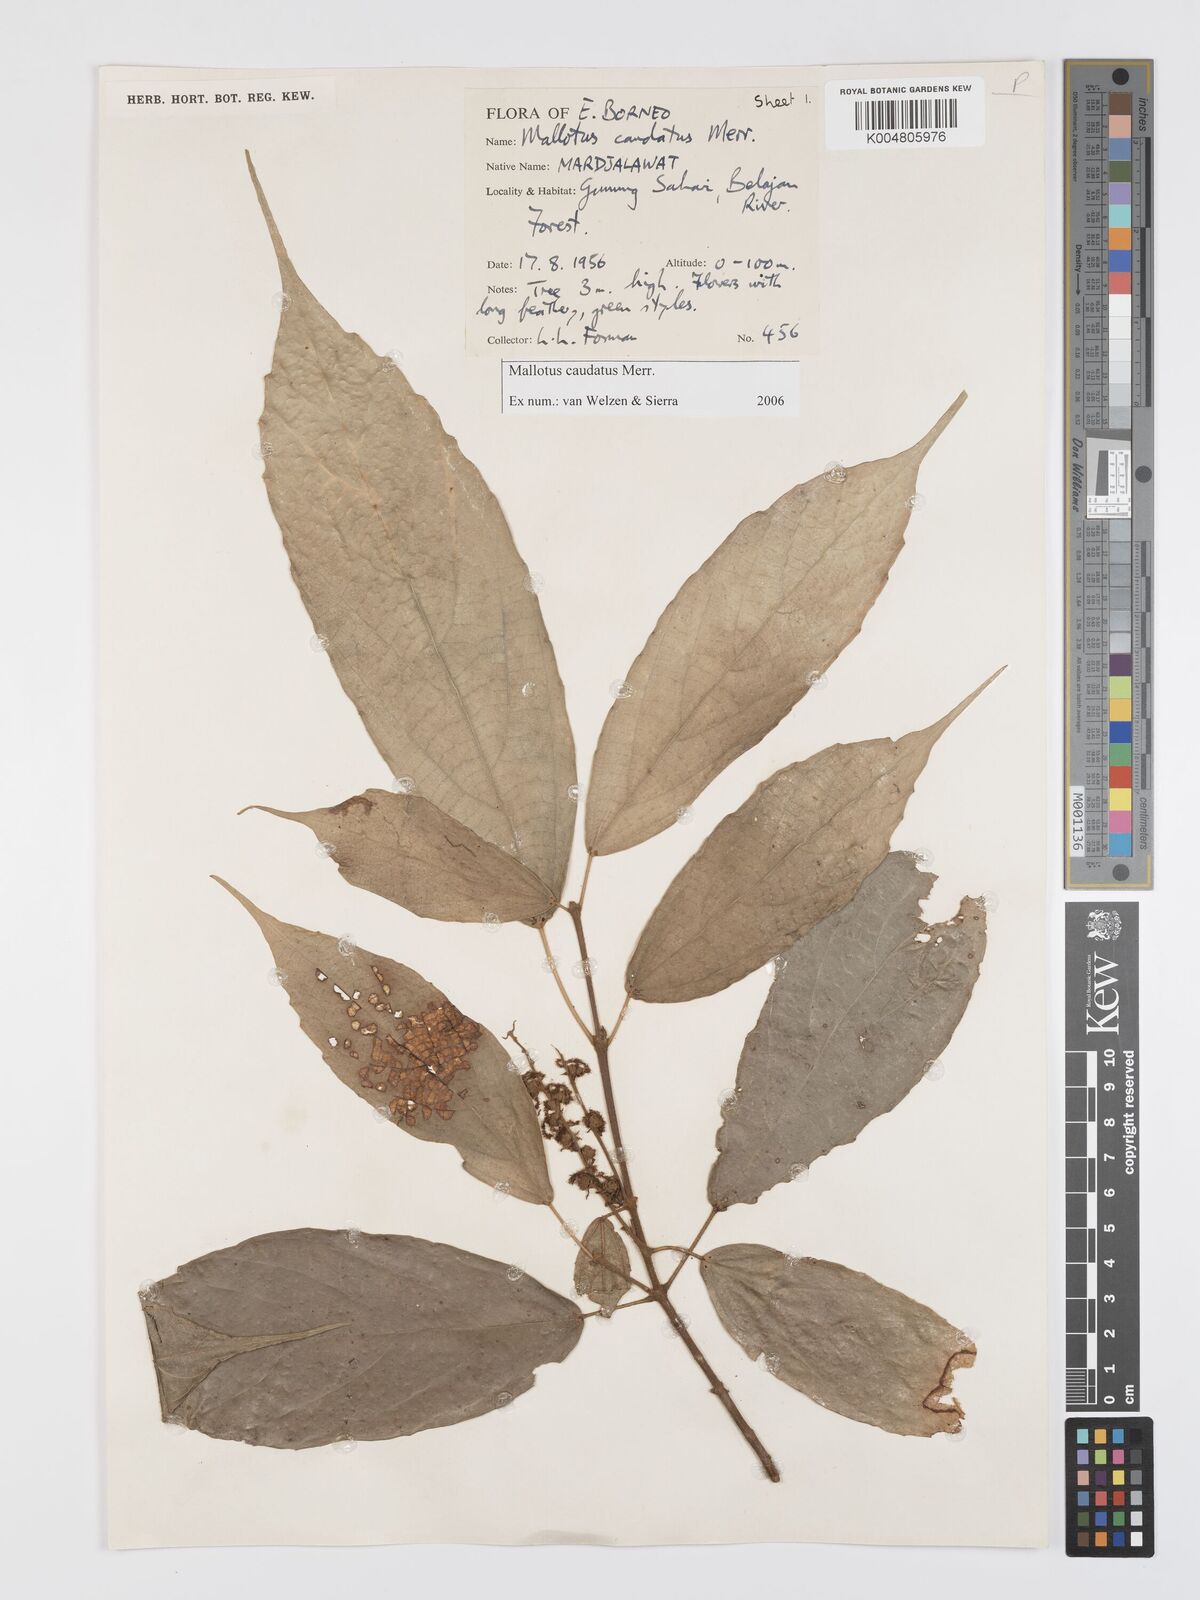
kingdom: Plantae
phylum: Tracheophyta
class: Magnoliopsida
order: Malpighiales
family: Euphorbiaceae
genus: Mallotus
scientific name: Mallotus caudatus
